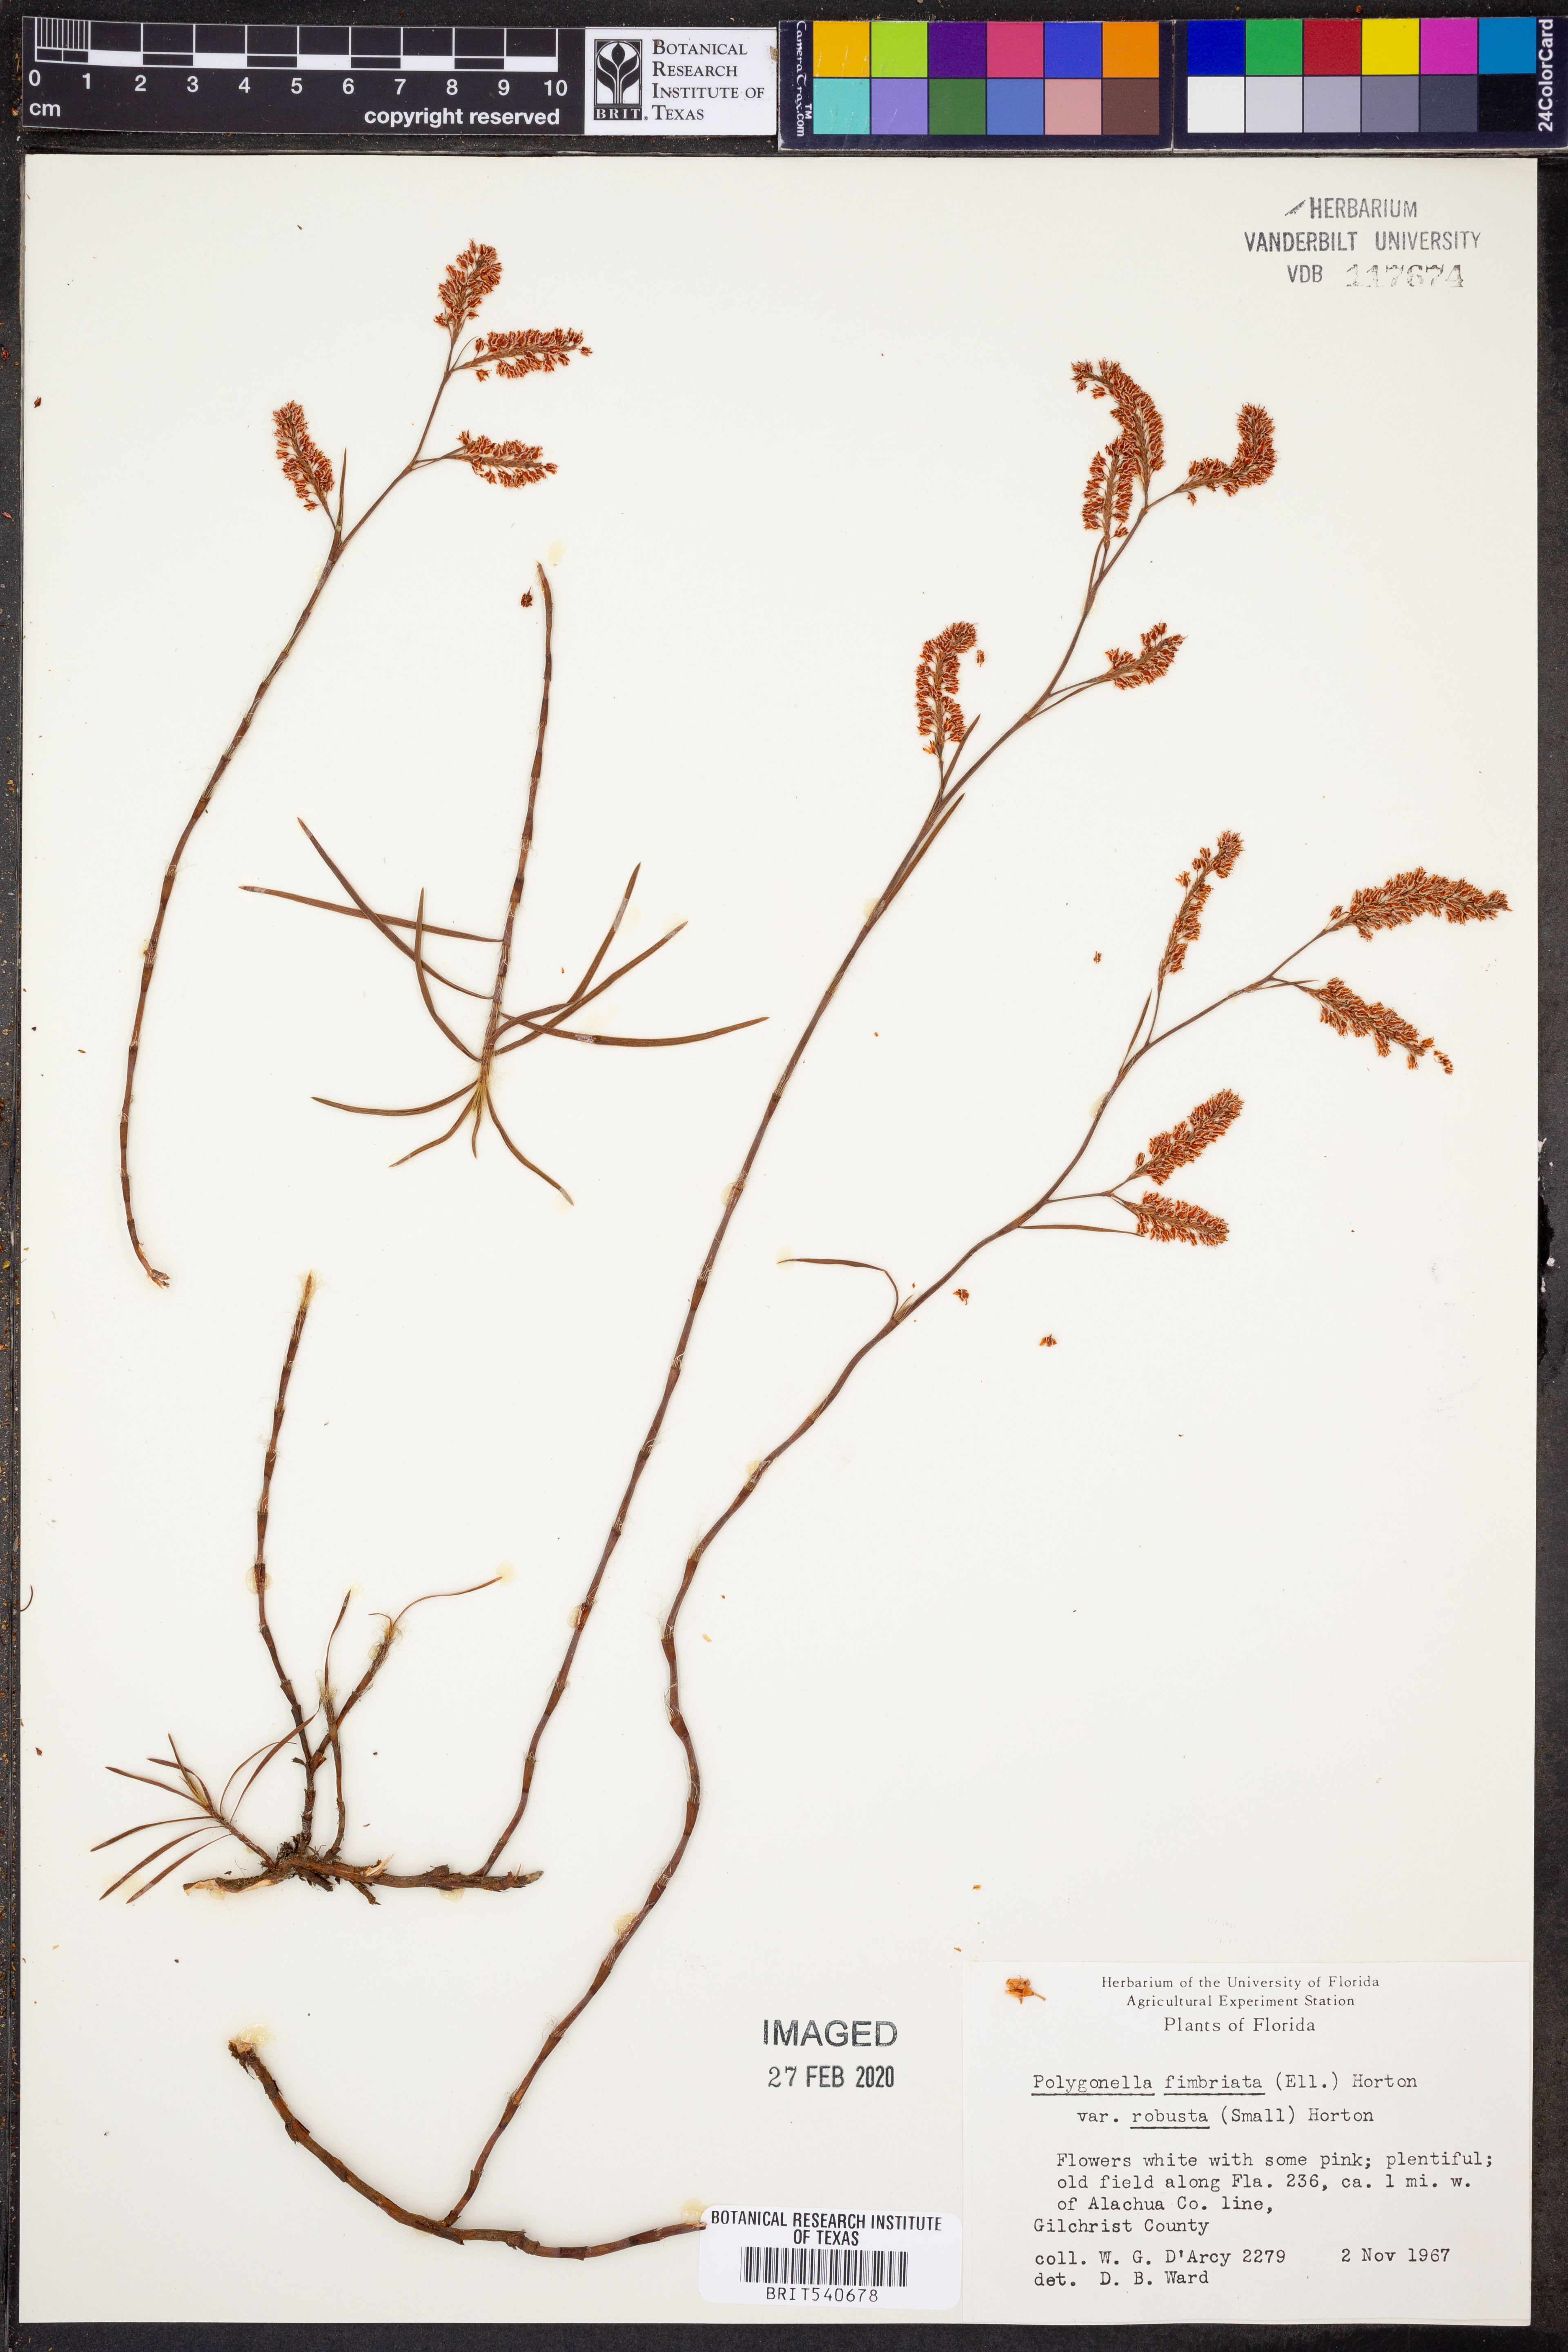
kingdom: Plantae
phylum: Tracheophyta
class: Magnoliopsida
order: Caryophyllales
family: Polygonaceae
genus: Polygonella
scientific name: Polygonella robusta
